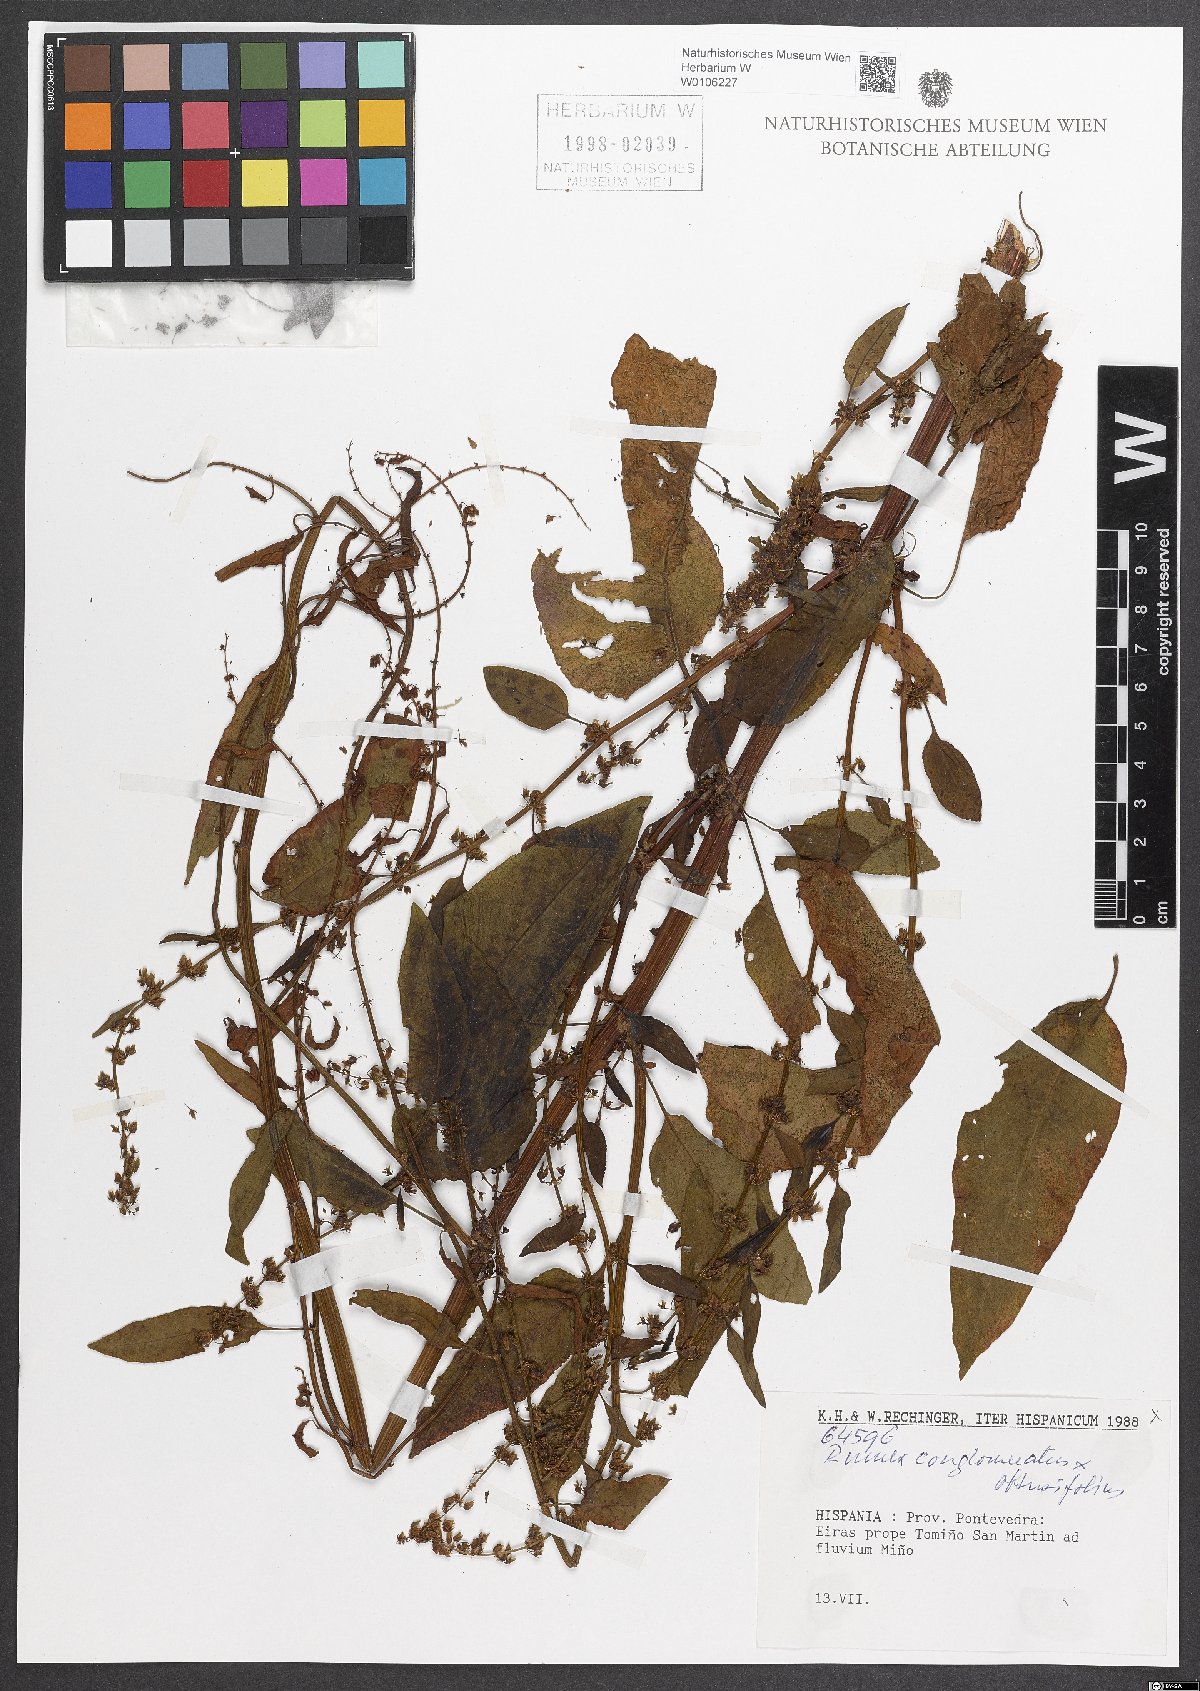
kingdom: Plantae
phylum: Tracheophyta
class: Magnoliopsida
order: Caryophyllales
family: Polygonaceae
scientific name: Polygonaceae
